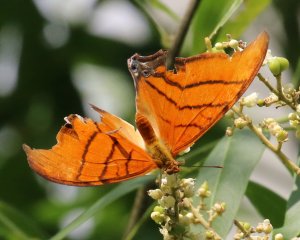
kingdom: Animalia
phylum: Arthropoda
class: Insecta
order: Lepidoptera
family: Nymphalidae
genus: Marpesia
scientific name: Marpesia petreus
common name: Ruddy Daggerwing
